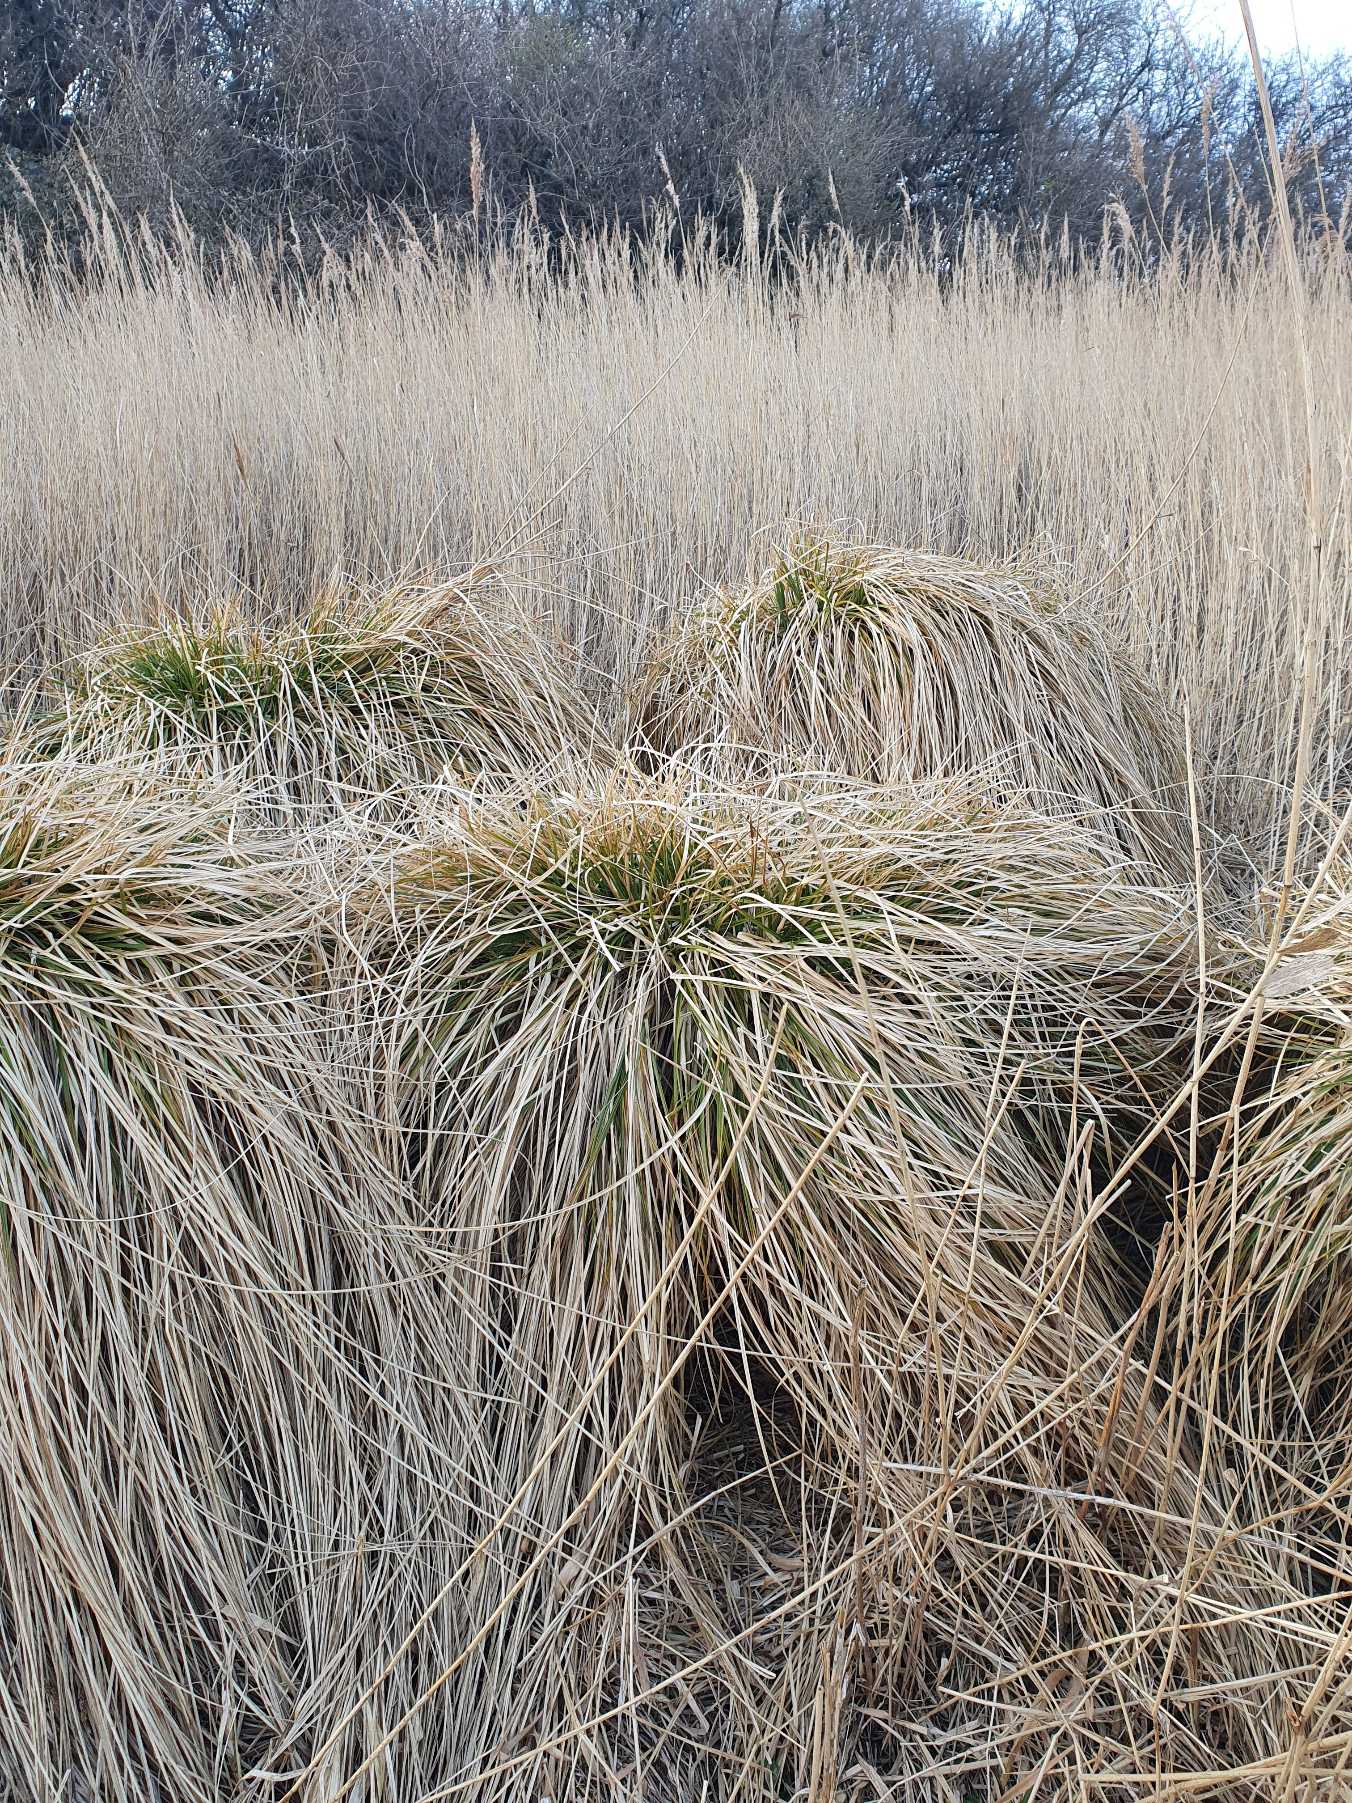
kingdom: Plantae
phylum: Tracheophyta
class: Liliopsida
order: Poales
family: Cyperaceae
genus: Carex
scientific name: Carex paniculata
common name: Top-star
